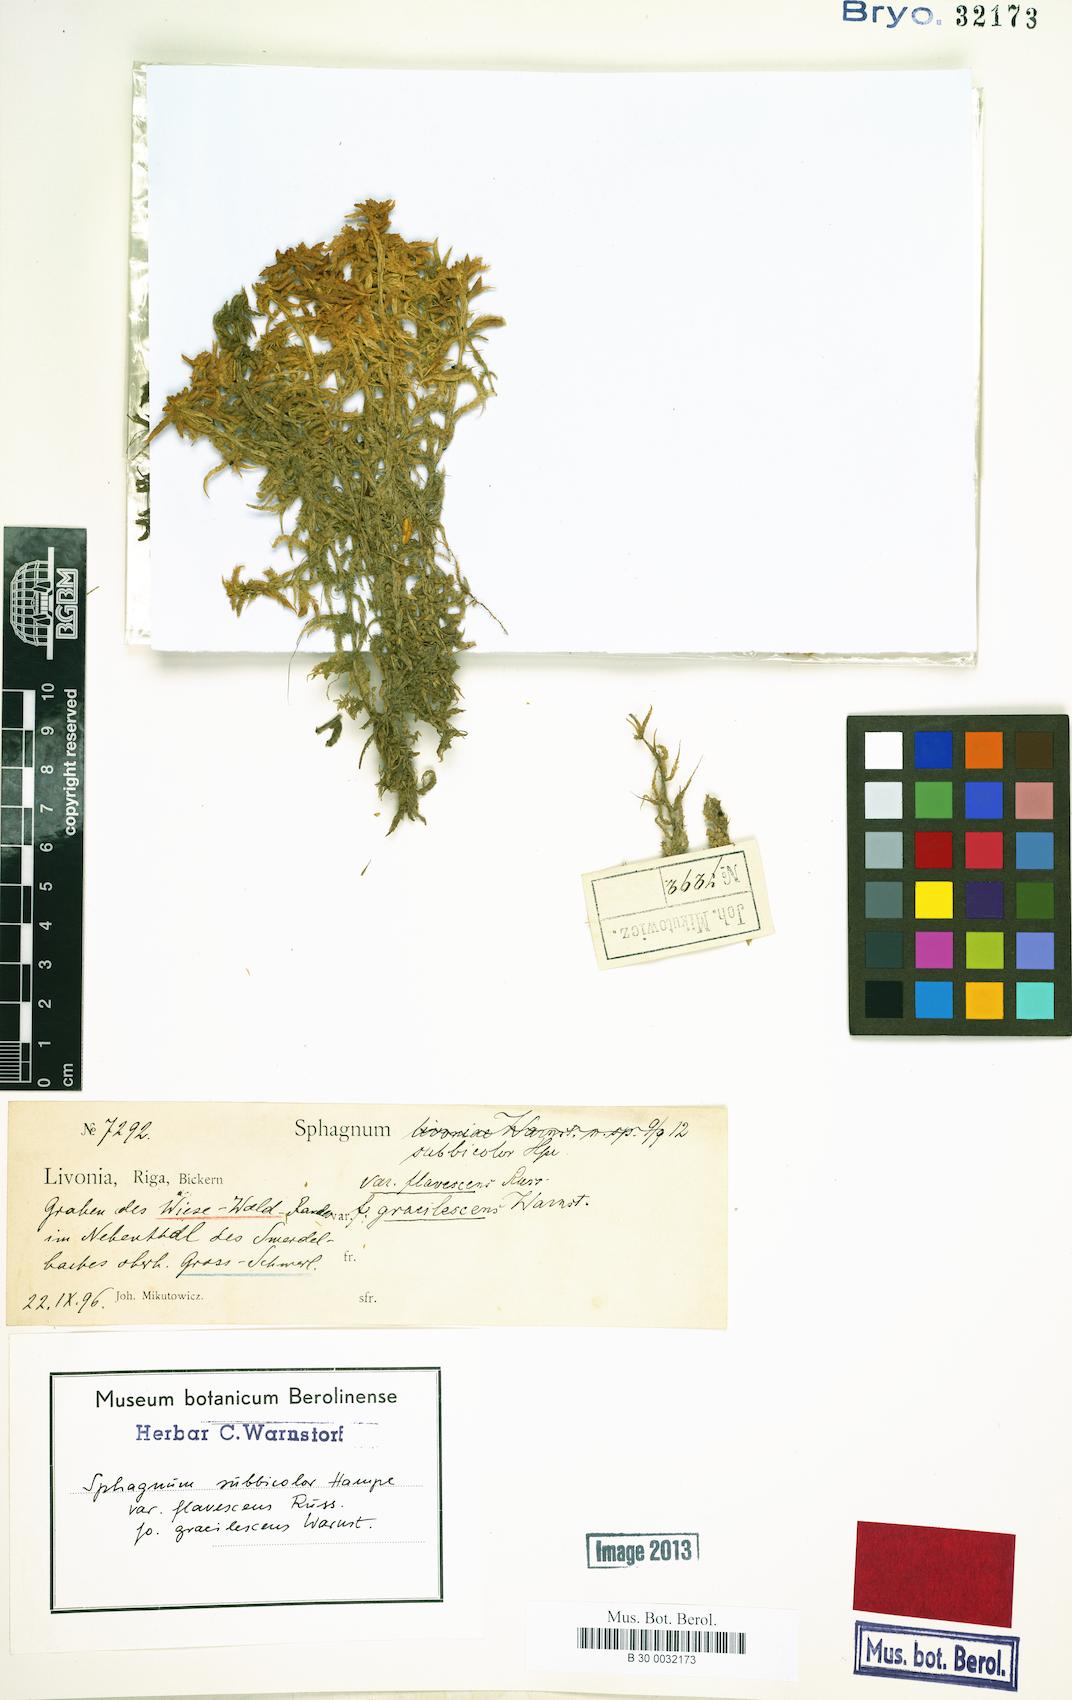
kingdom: Plantae
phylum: Bryophyta
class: Sphagnopsida
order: Sphagnales
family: Sphagnaceae
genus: Sphagnum
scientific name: Sphagnum centrale
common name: Central peat moss
